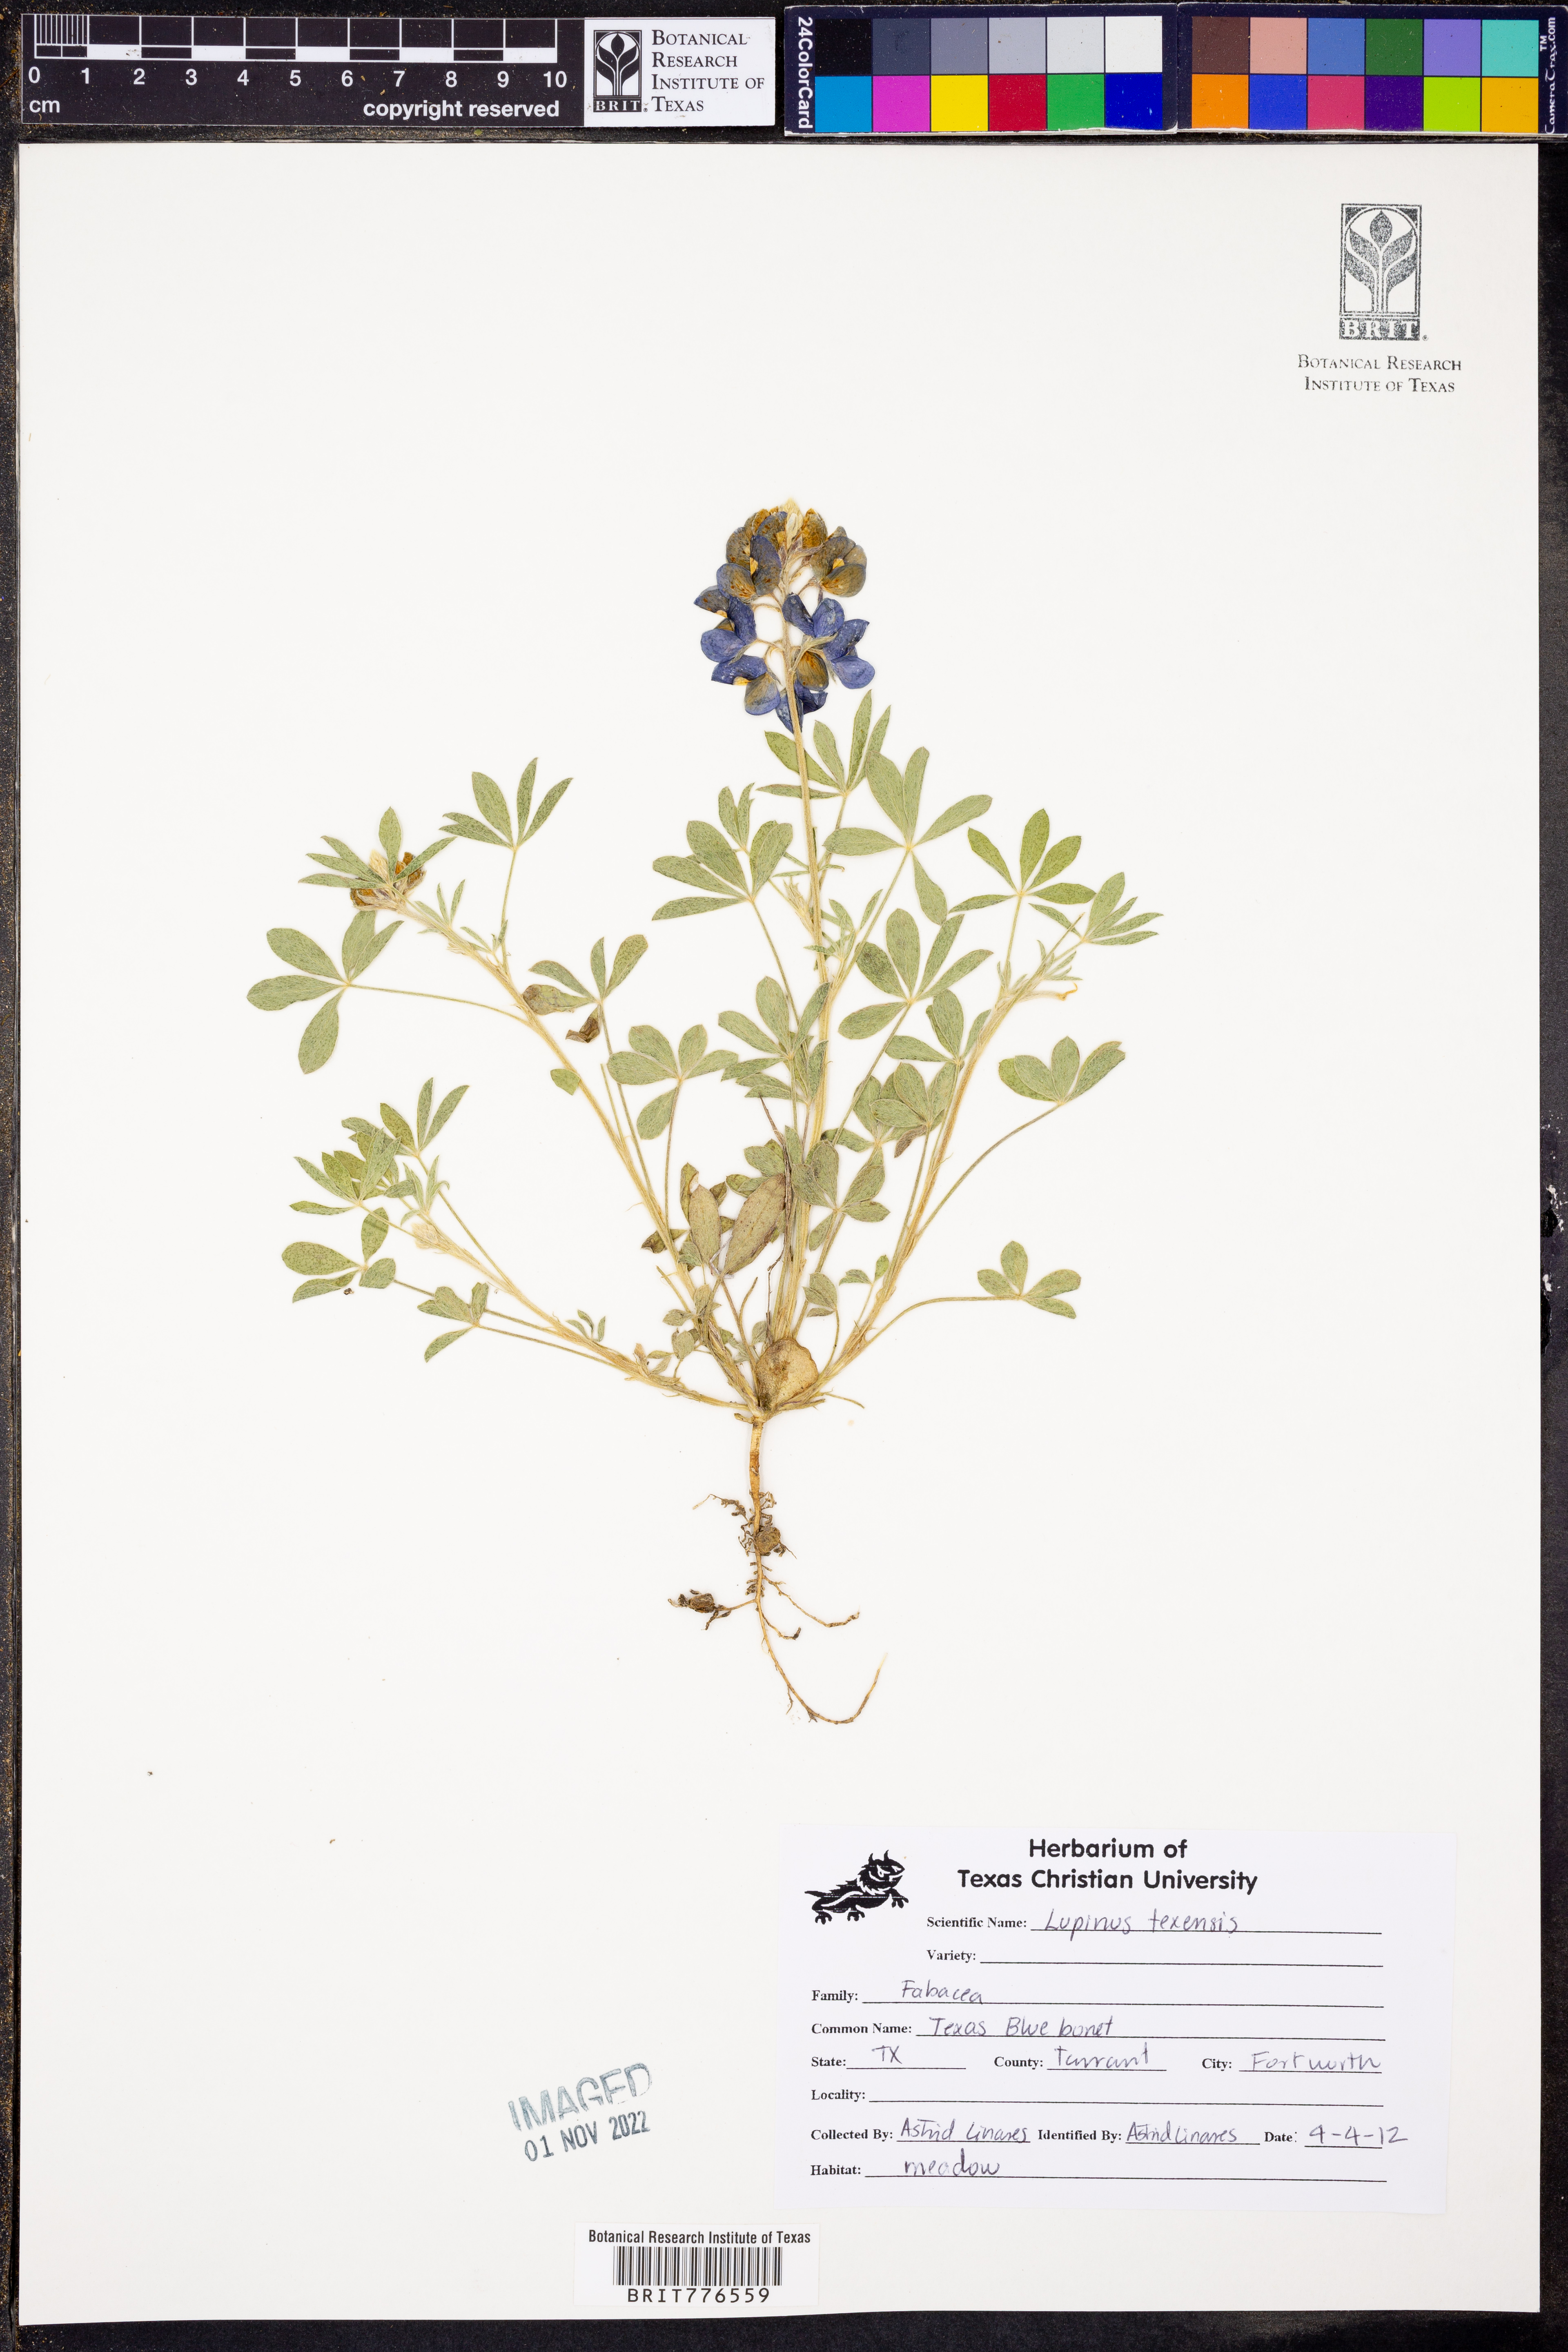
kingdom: Plantae
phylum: Tracheophyta
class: Magnoliopsida
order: Fabales
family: Fabaceae
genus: Lupinus
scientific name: Lupinus texensis
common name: Texas bluebonnet
